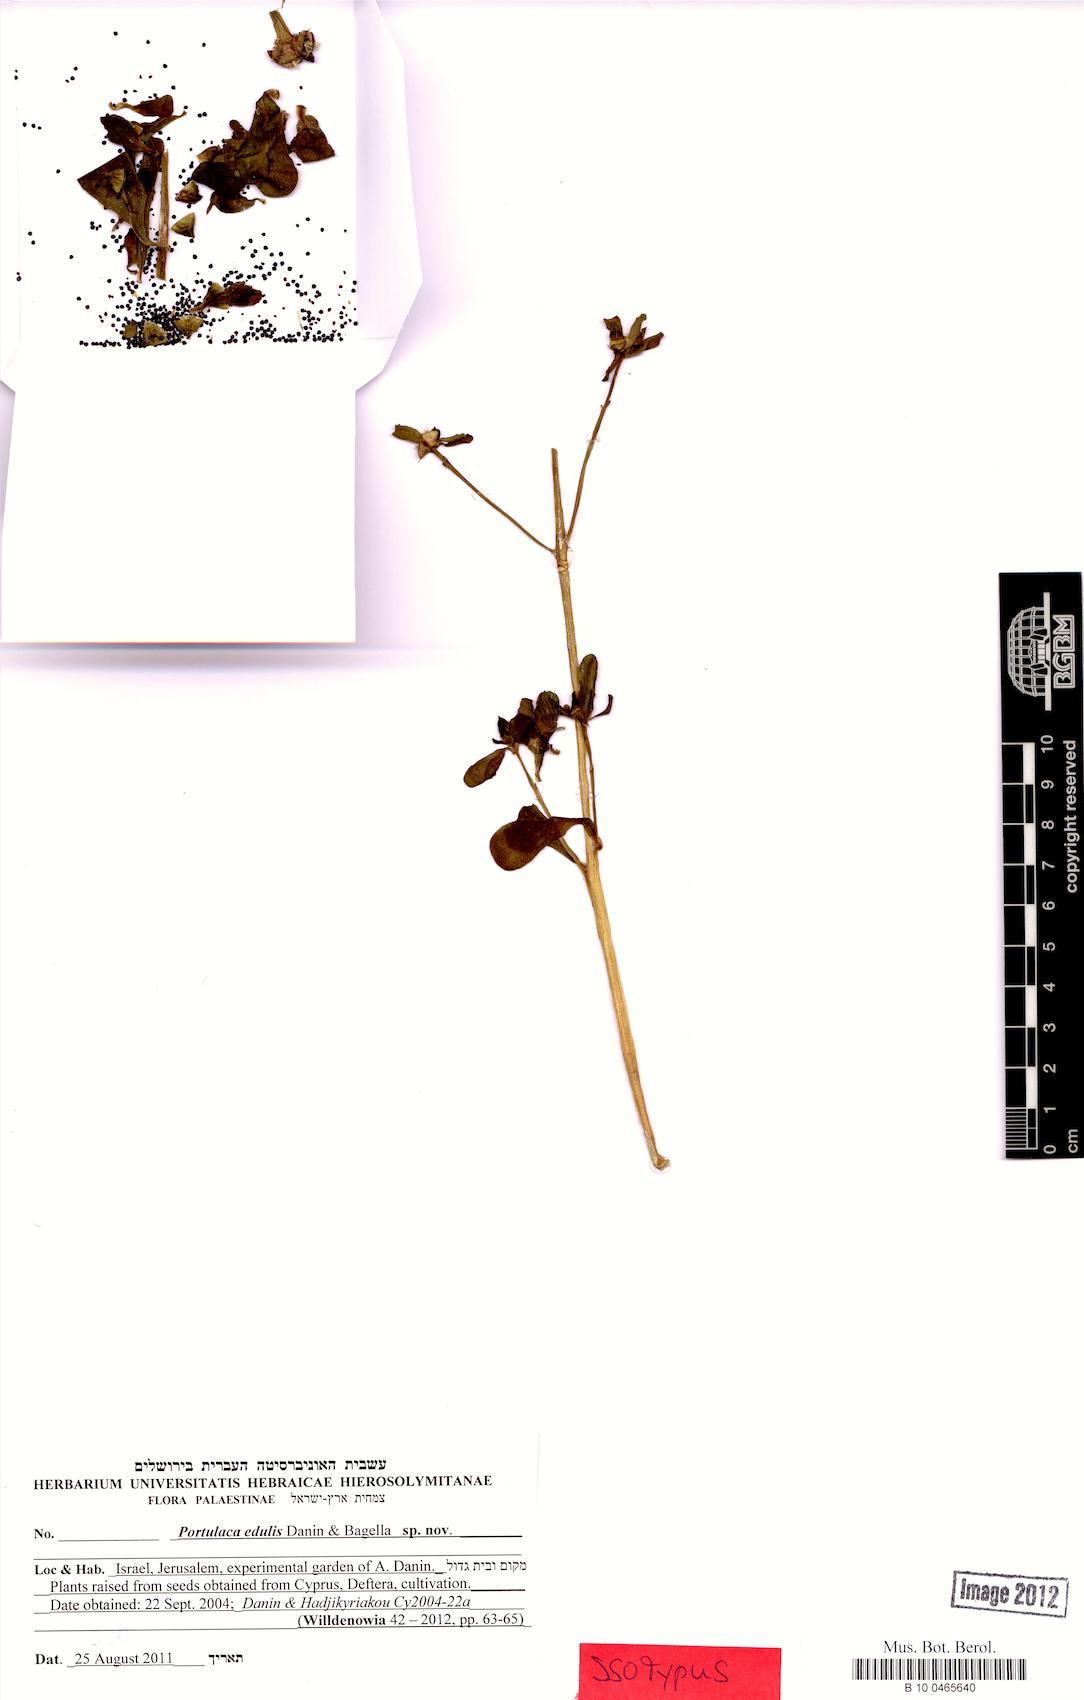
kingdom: Plantae
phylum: Tracheophyta
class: Magnoliopsida
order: Caryophyllales
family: Portulacaceae
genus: Portulaca
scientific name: Portulaca edulis
